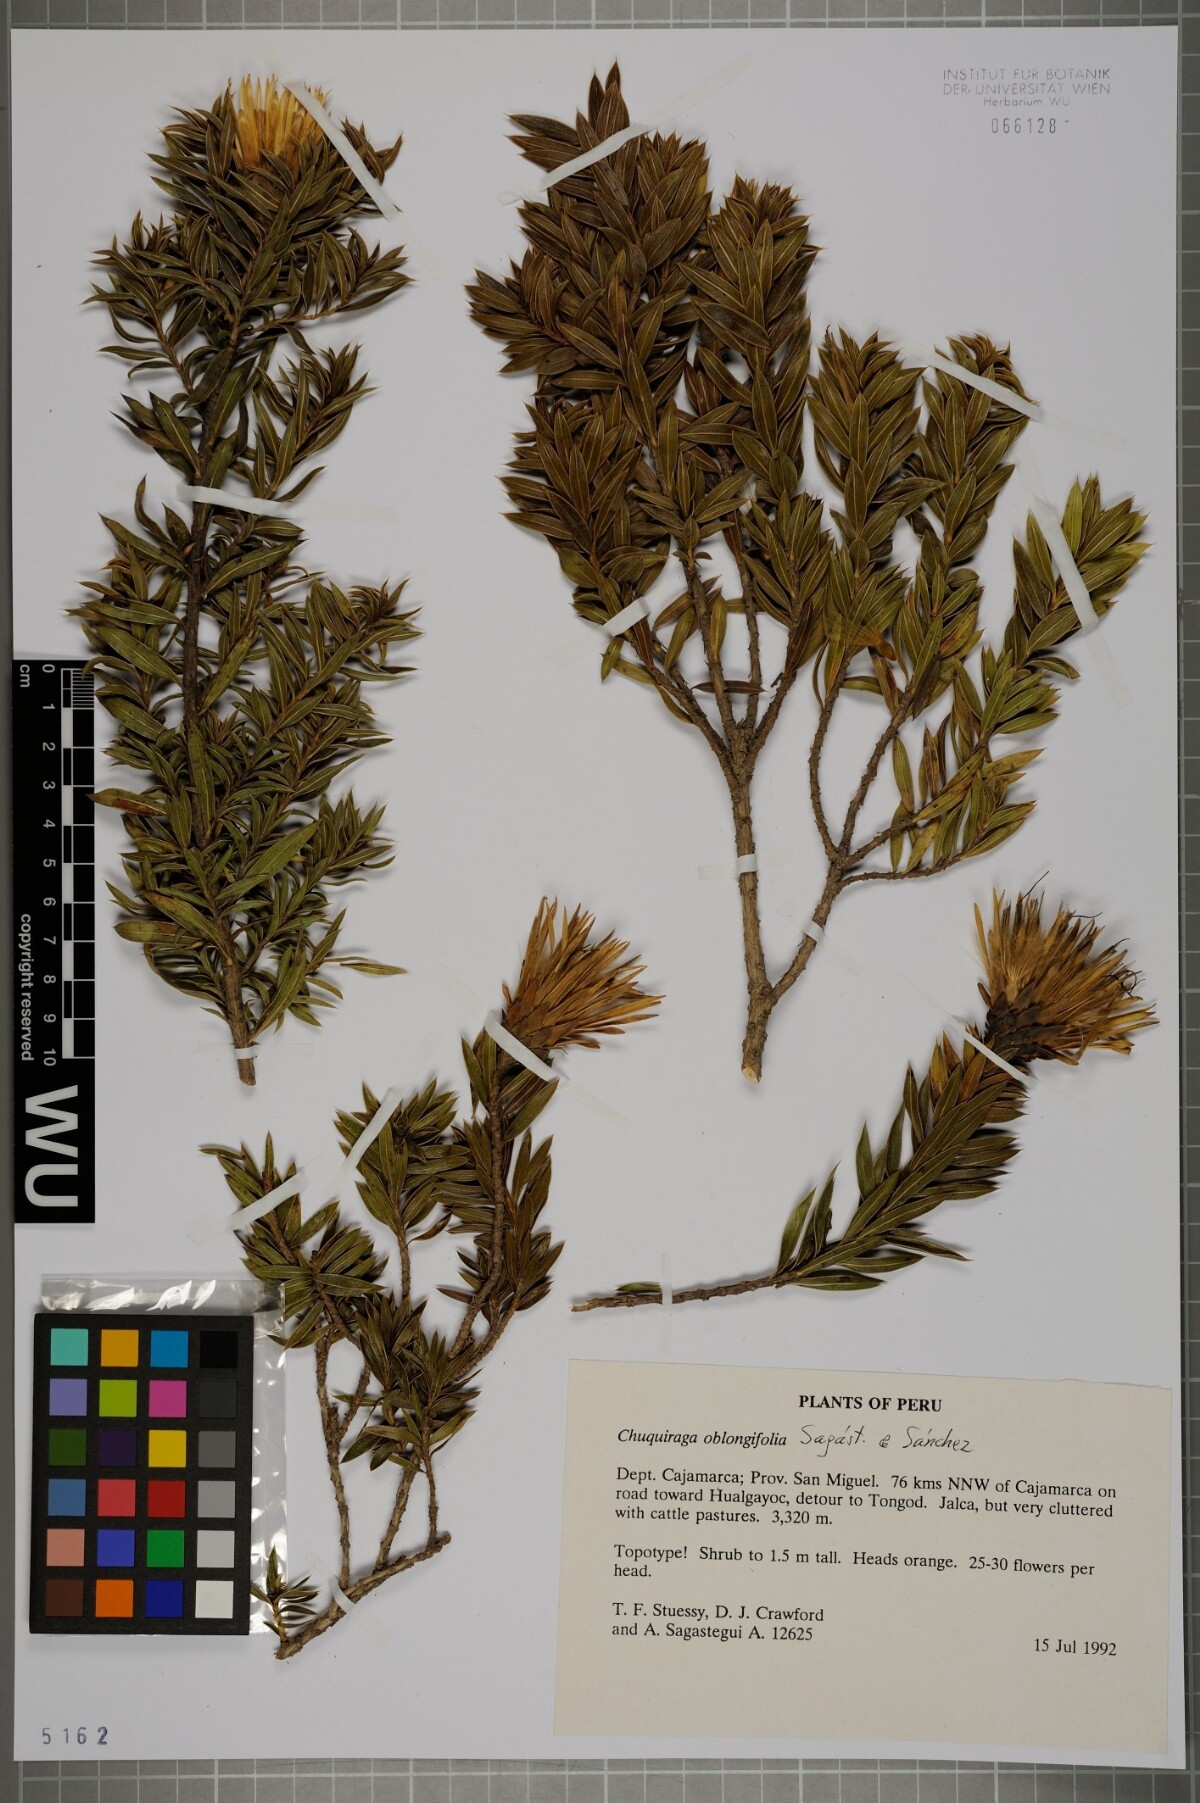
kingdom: Plantae
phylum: Tracheophyta
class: Magnoliopsida
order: Asterales
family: Asteraceae
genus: Chuquiraga
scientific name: Chuquiraga oblongifolia
